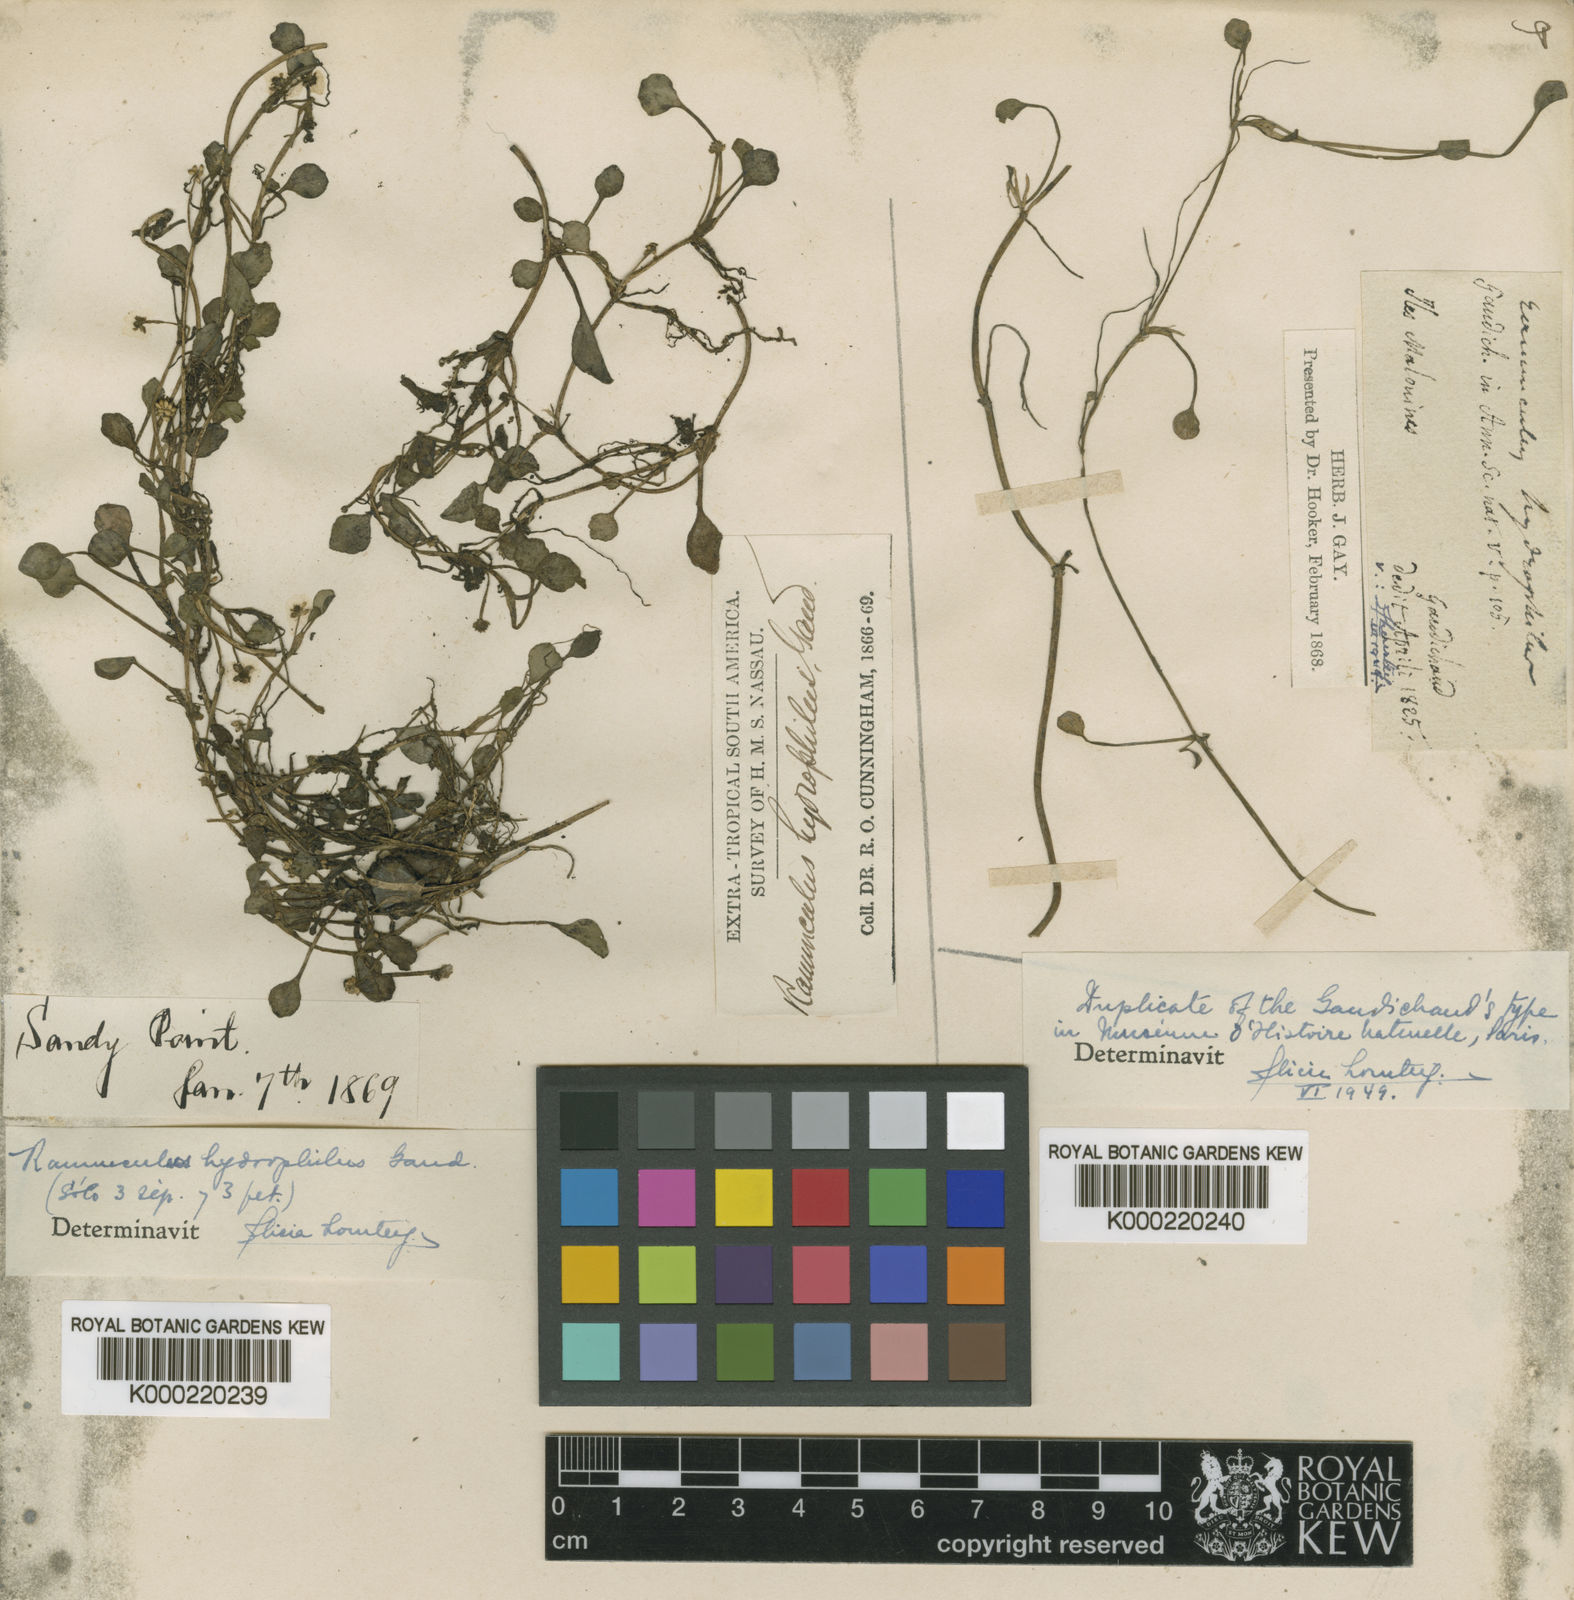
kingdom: Plantae
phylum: Tracheophyta
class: Magnoliopsida
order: Ranunculales
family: Ranunculaceae
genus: Ranunculus
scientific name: Ranunculus hydrophilus
